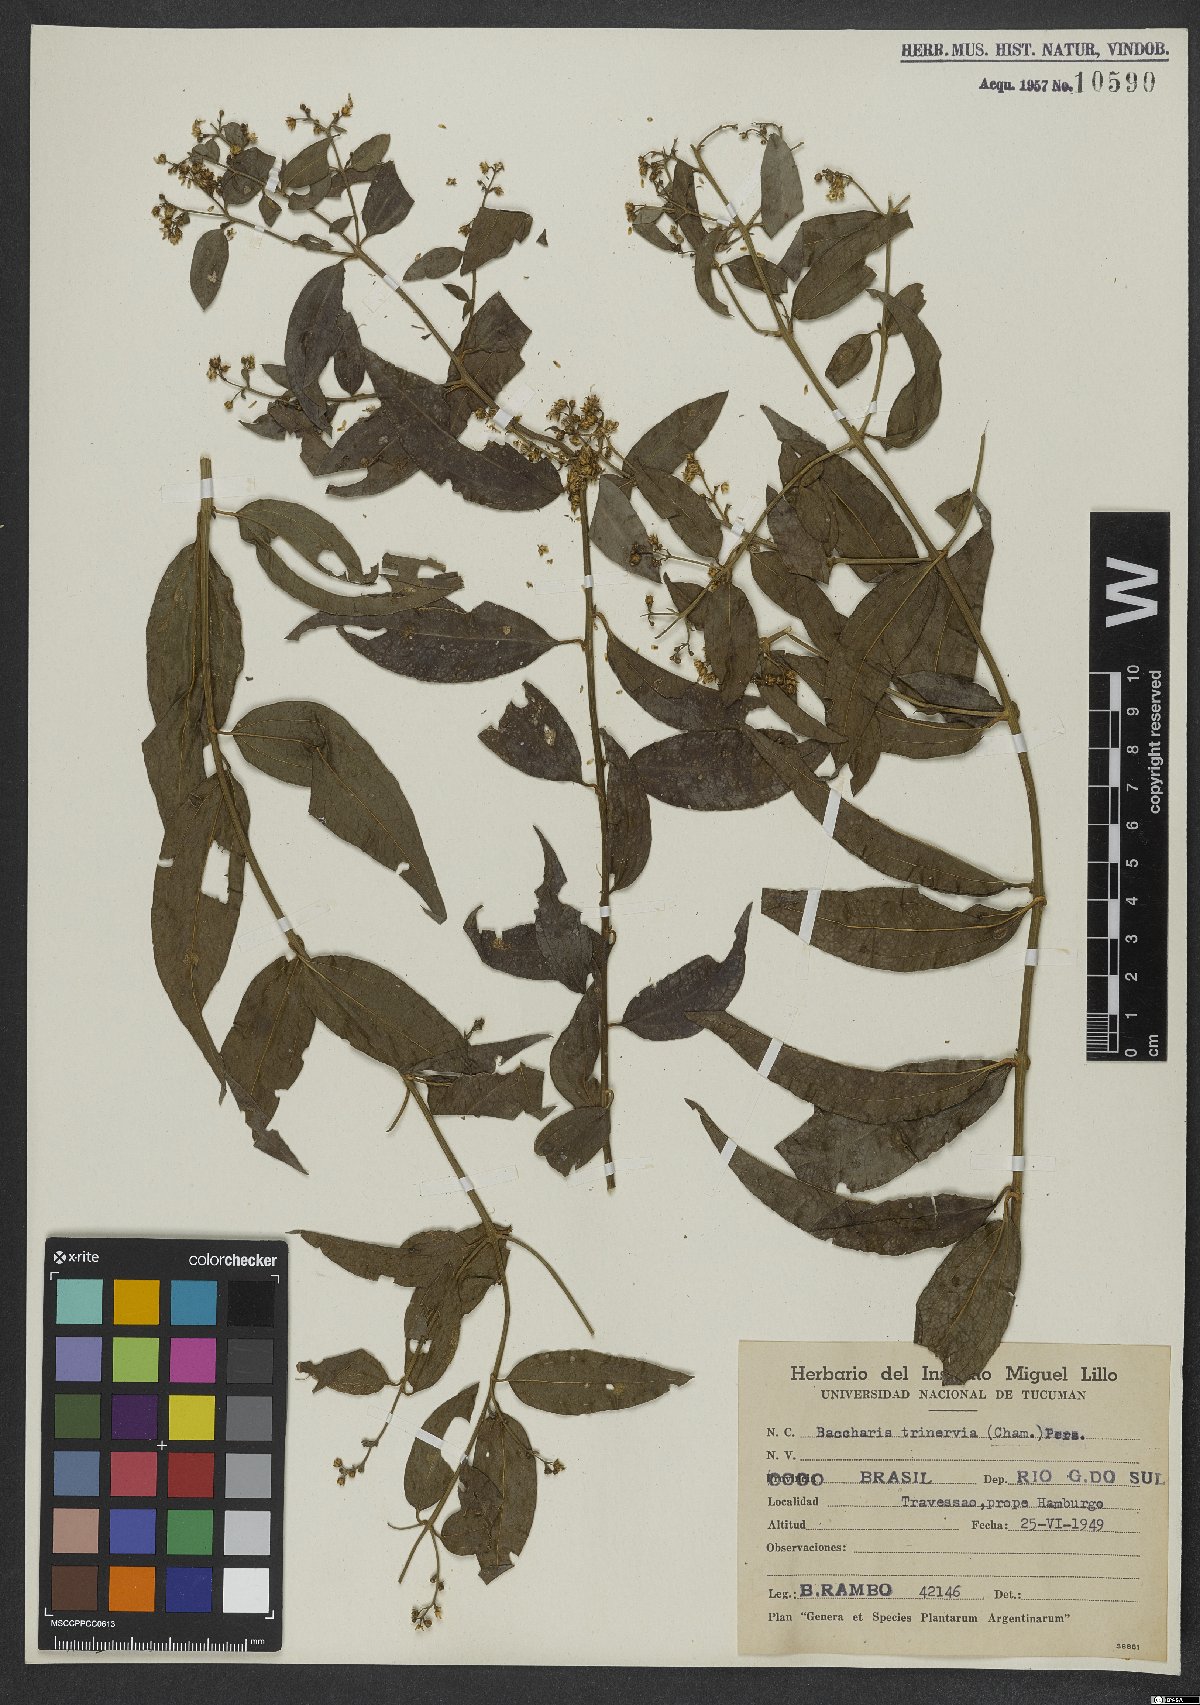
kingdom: Plantae
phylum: Tracheophyta
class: Magnoliopsida
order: Asterales
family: Asteraceae
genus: Baccharis
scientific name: Baccharis trinervis
